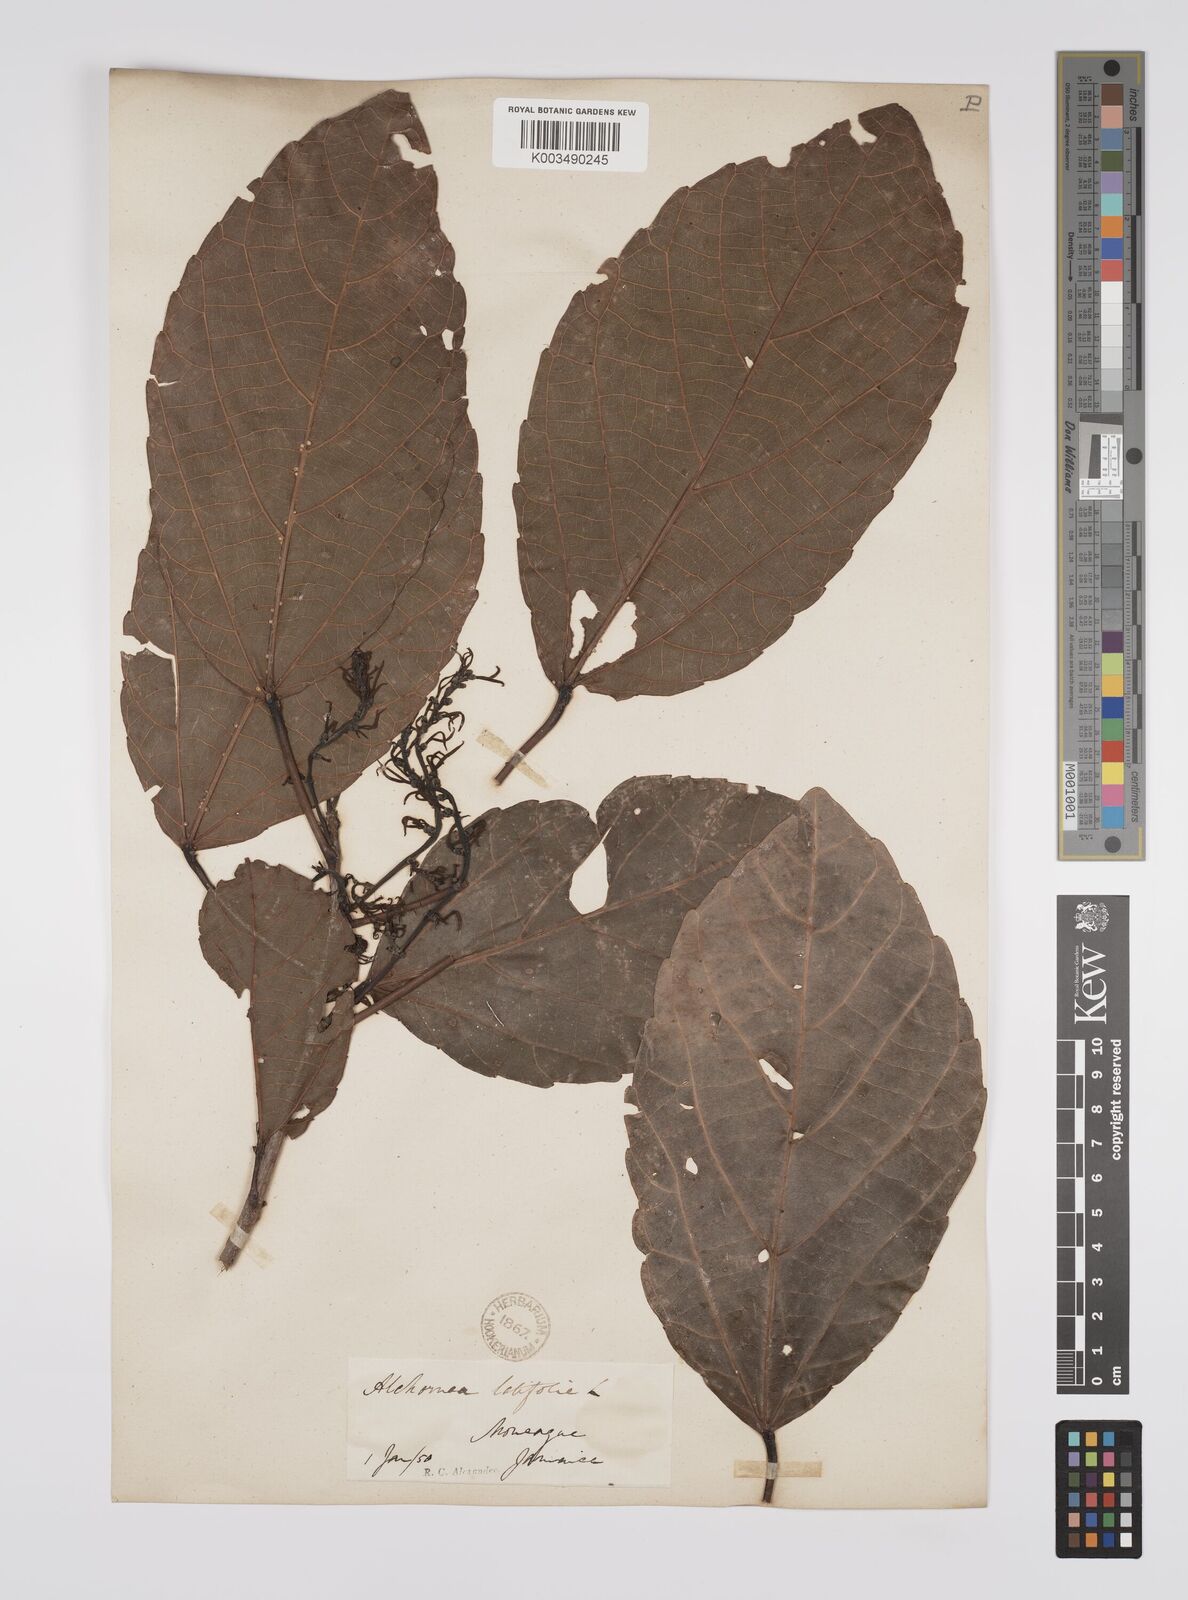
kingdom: Plantae
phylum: Tracheophyta
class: Magnoliopsida
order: Malpighiales
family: Euphorbiaceae
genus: Alchornea
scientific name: Alchornea latifolia
